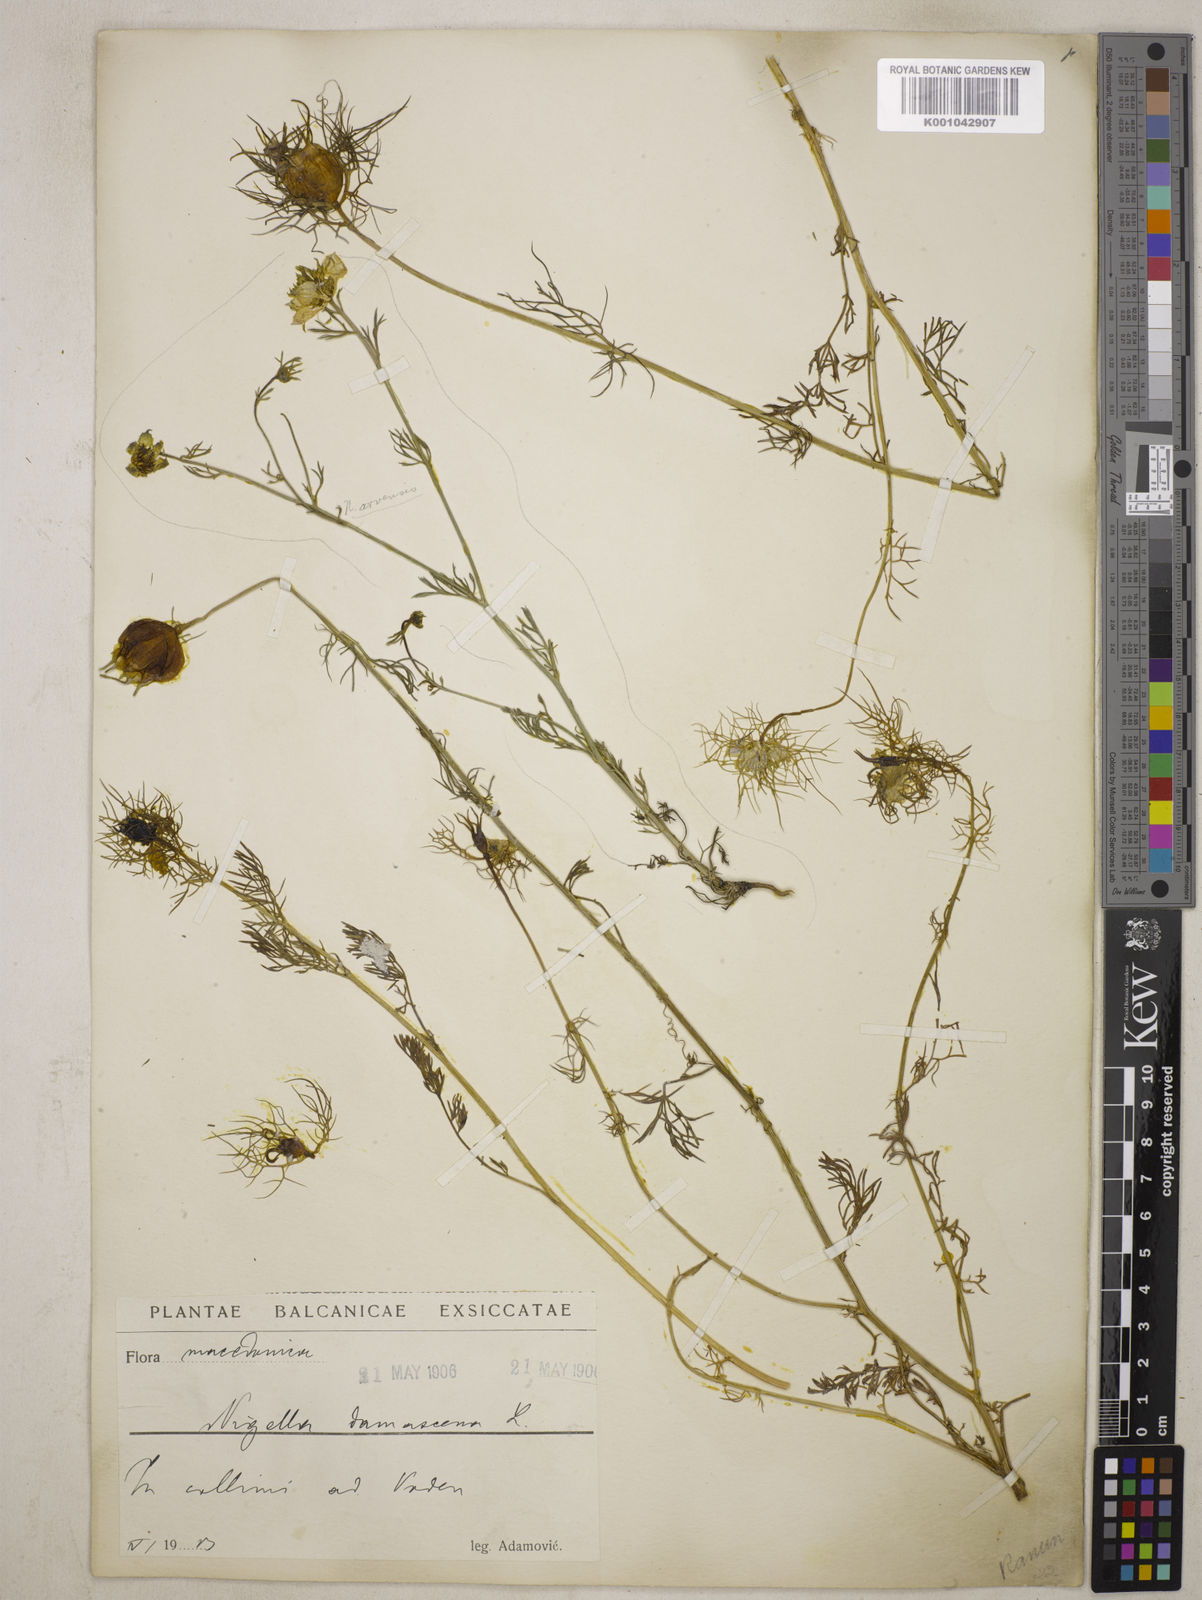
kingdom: Plantae
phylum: Tracheophyta
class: Magnoliopsida
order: Ranunculales
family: Ranunculaceae
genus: Nigella
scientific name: Nigella damascena
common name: Love-in-a-mist
